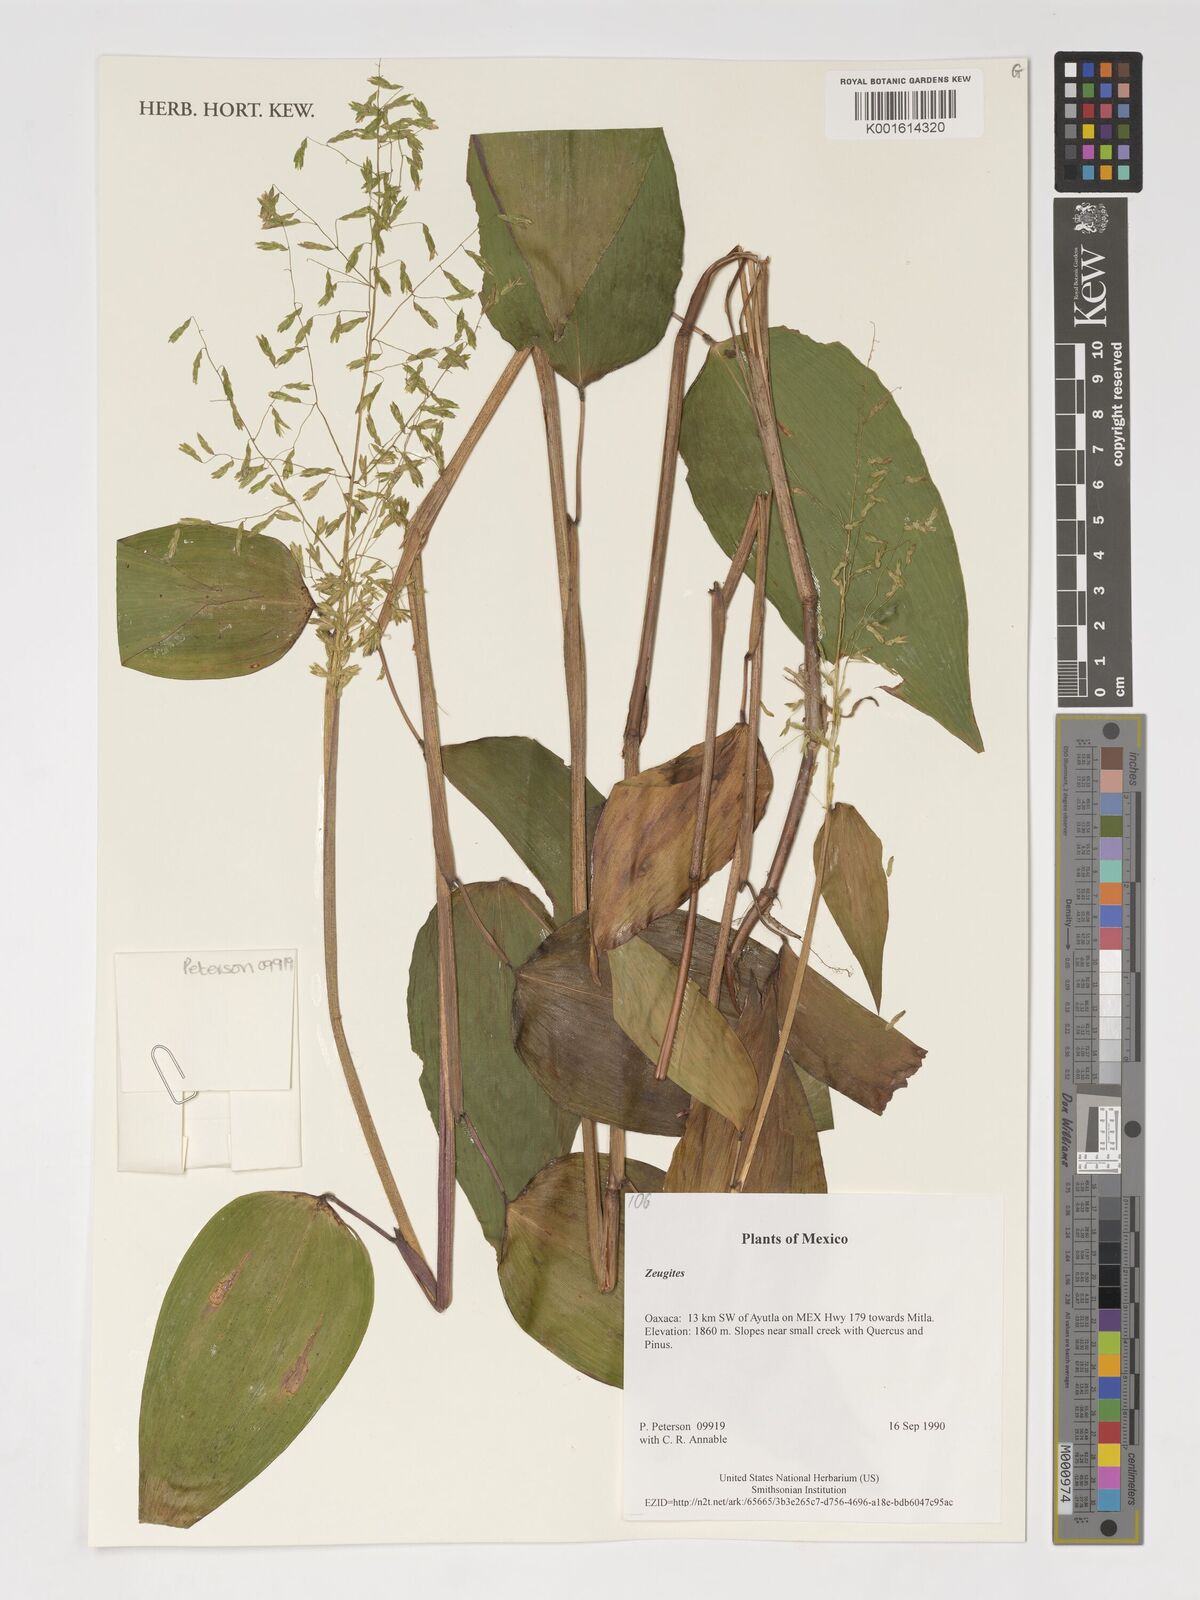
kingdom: Plantae
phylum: Tracheophyta
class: Liliopsida
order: Poales
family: Poaceae
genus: Zeugites
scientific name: Zeugites
